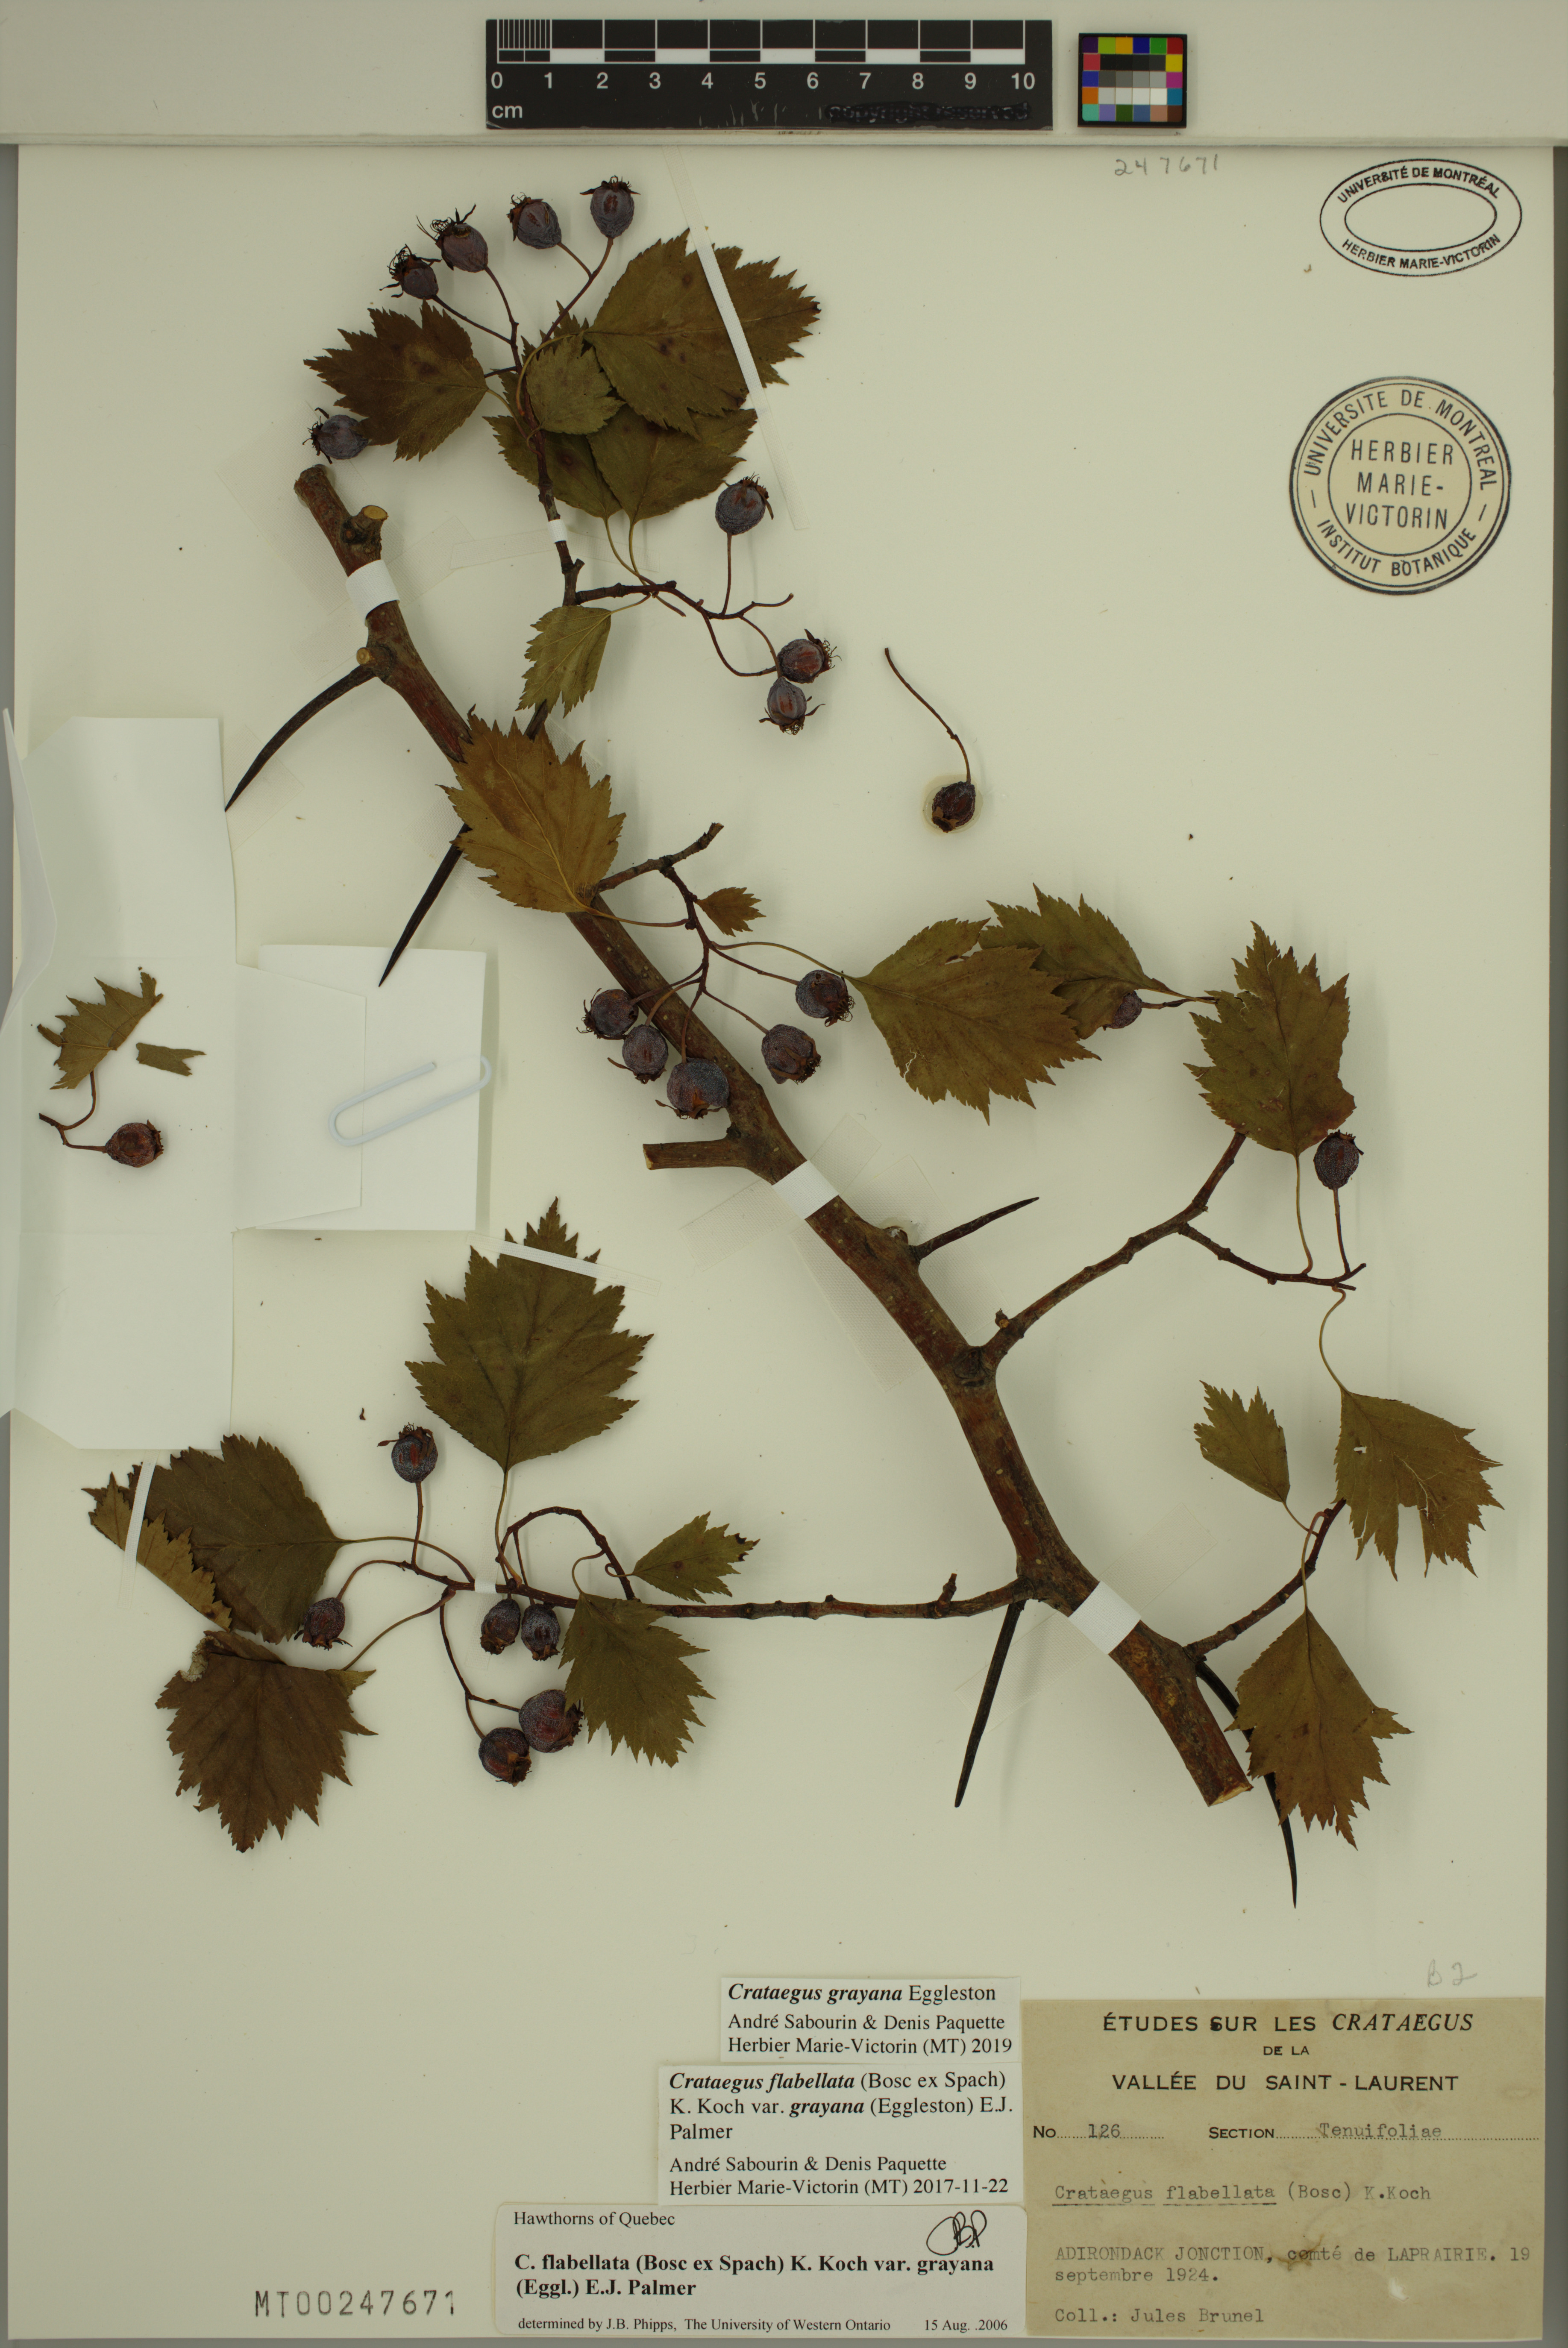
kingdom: Plantae
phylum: Tracheophyta
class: Magnoliopsida
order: Rosales
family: Rosaceae
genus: Crataegus
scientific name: Crataegus schuettei
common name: Schuette's hawthorn
